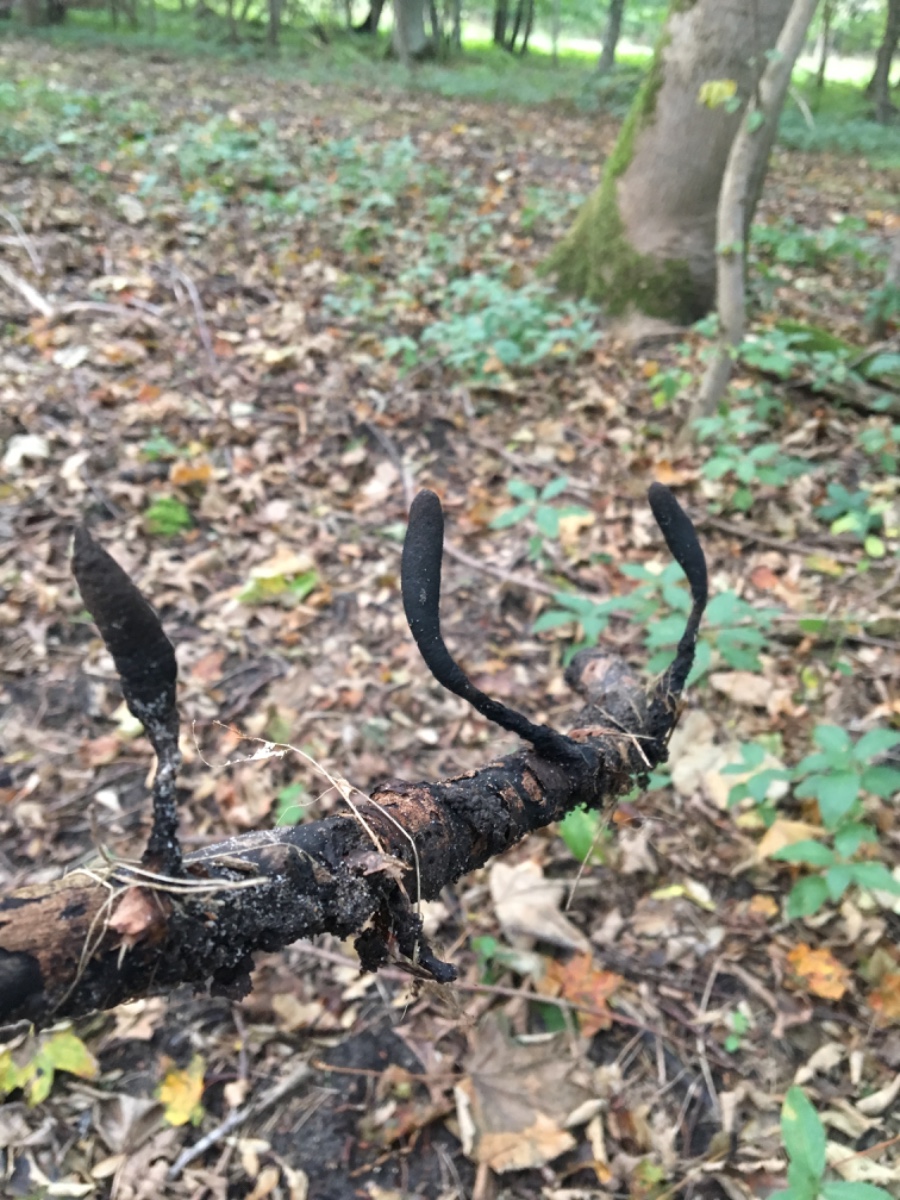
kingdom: Fungi
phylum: Ascomycota
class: Sordariomycetes
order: Xylariales
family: Xylariaceae
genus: Xylaria
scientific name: Xylaria longipes
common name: slank stødsvamp
